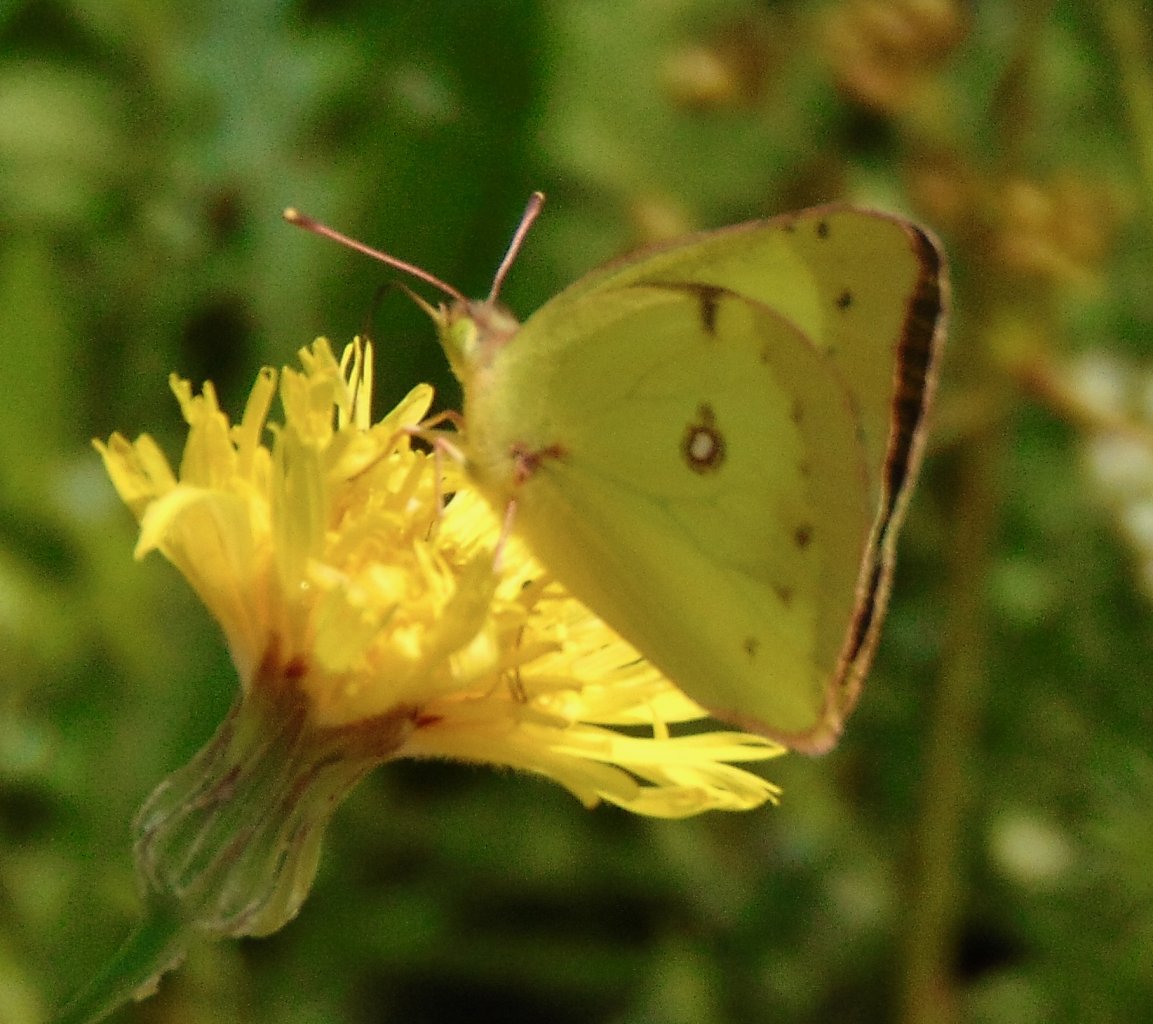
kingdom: Animalia
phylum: Arthropoda
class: Insecta
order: Lepidoptera
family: Pieridae
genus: Colias
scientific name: Colias philodice
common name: Clouded Sulphur
